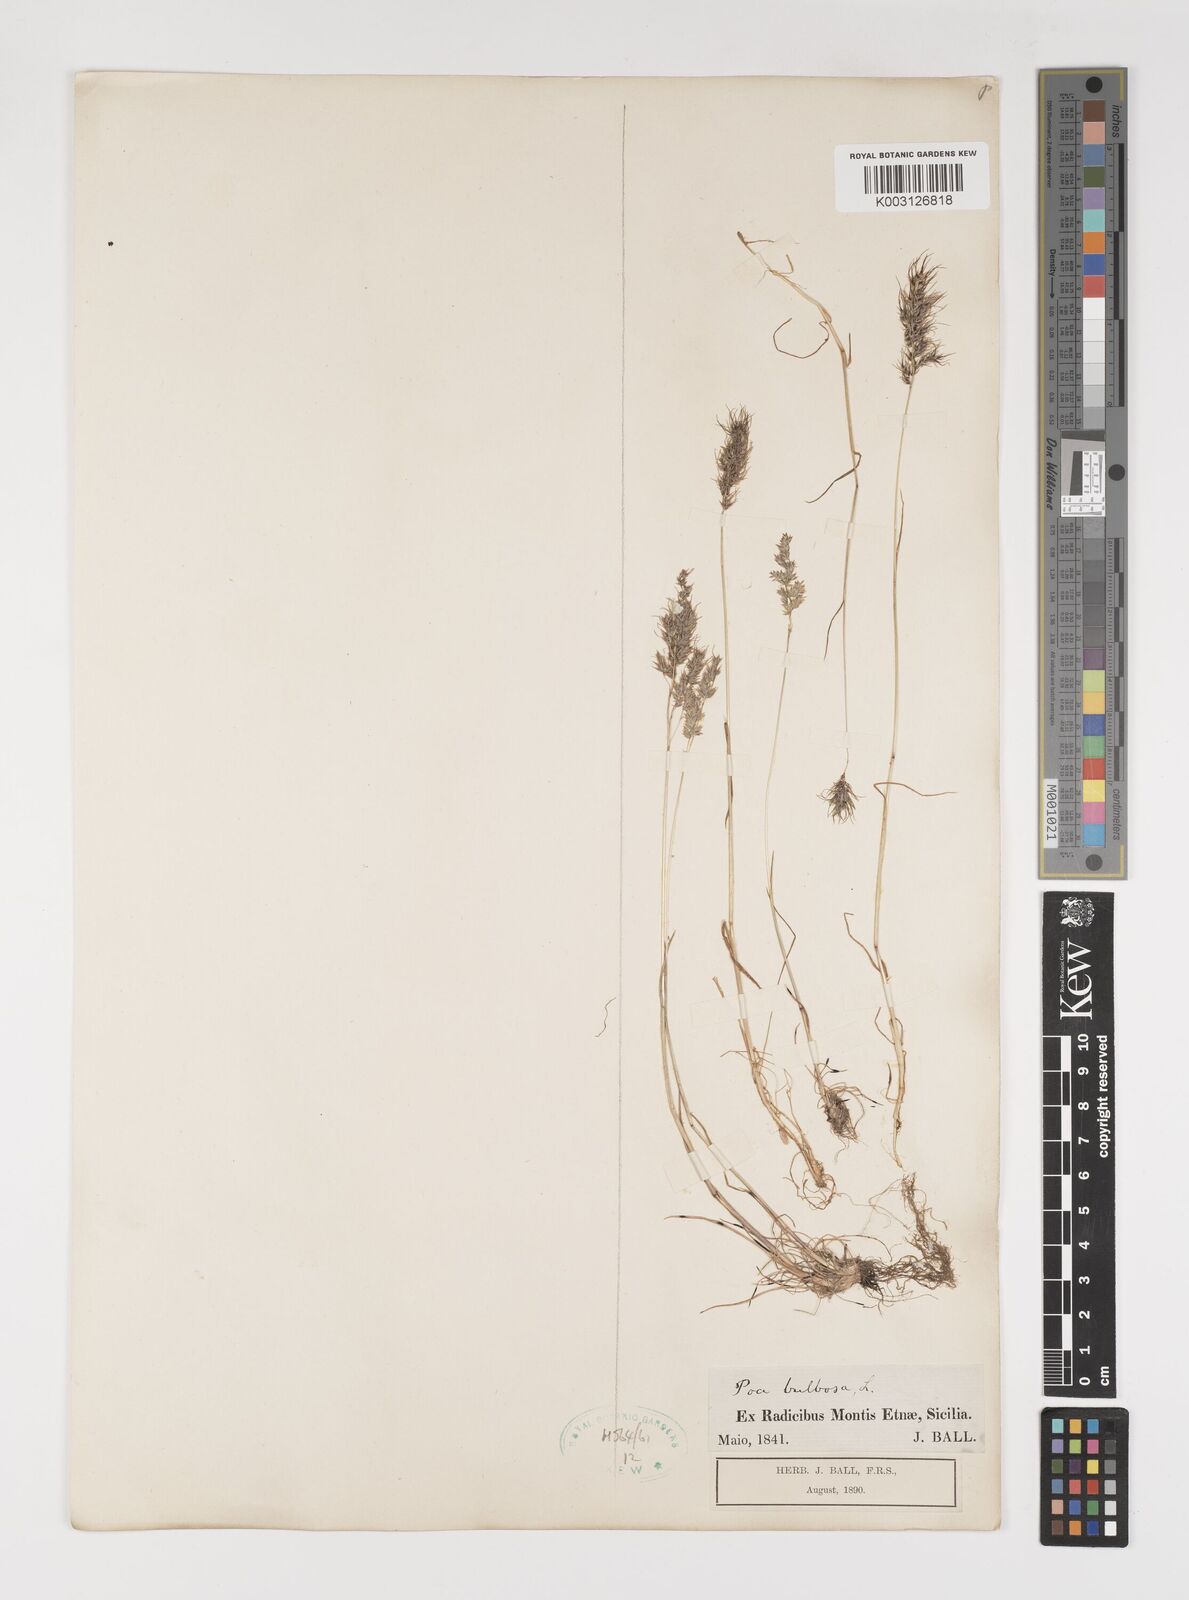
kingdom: Plantae
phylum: Tracheophyta
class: Liliopsida
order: Poales
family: Poaceae
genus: Poa
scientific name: Poa bulbosa
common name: Bulbous bluegrass
